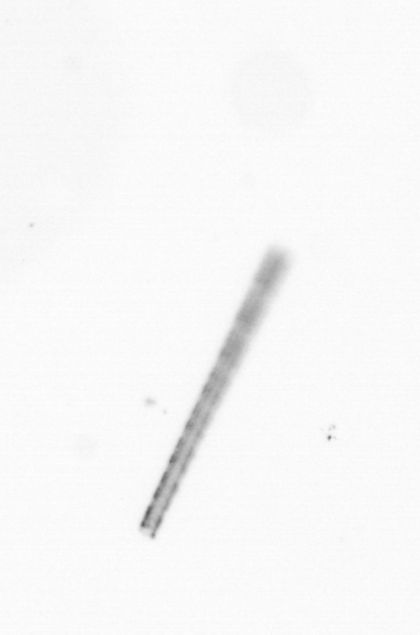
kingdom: Chromista
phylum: Ochrophyta
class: Bacillariophyceae
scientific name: Bacillariophyceae
